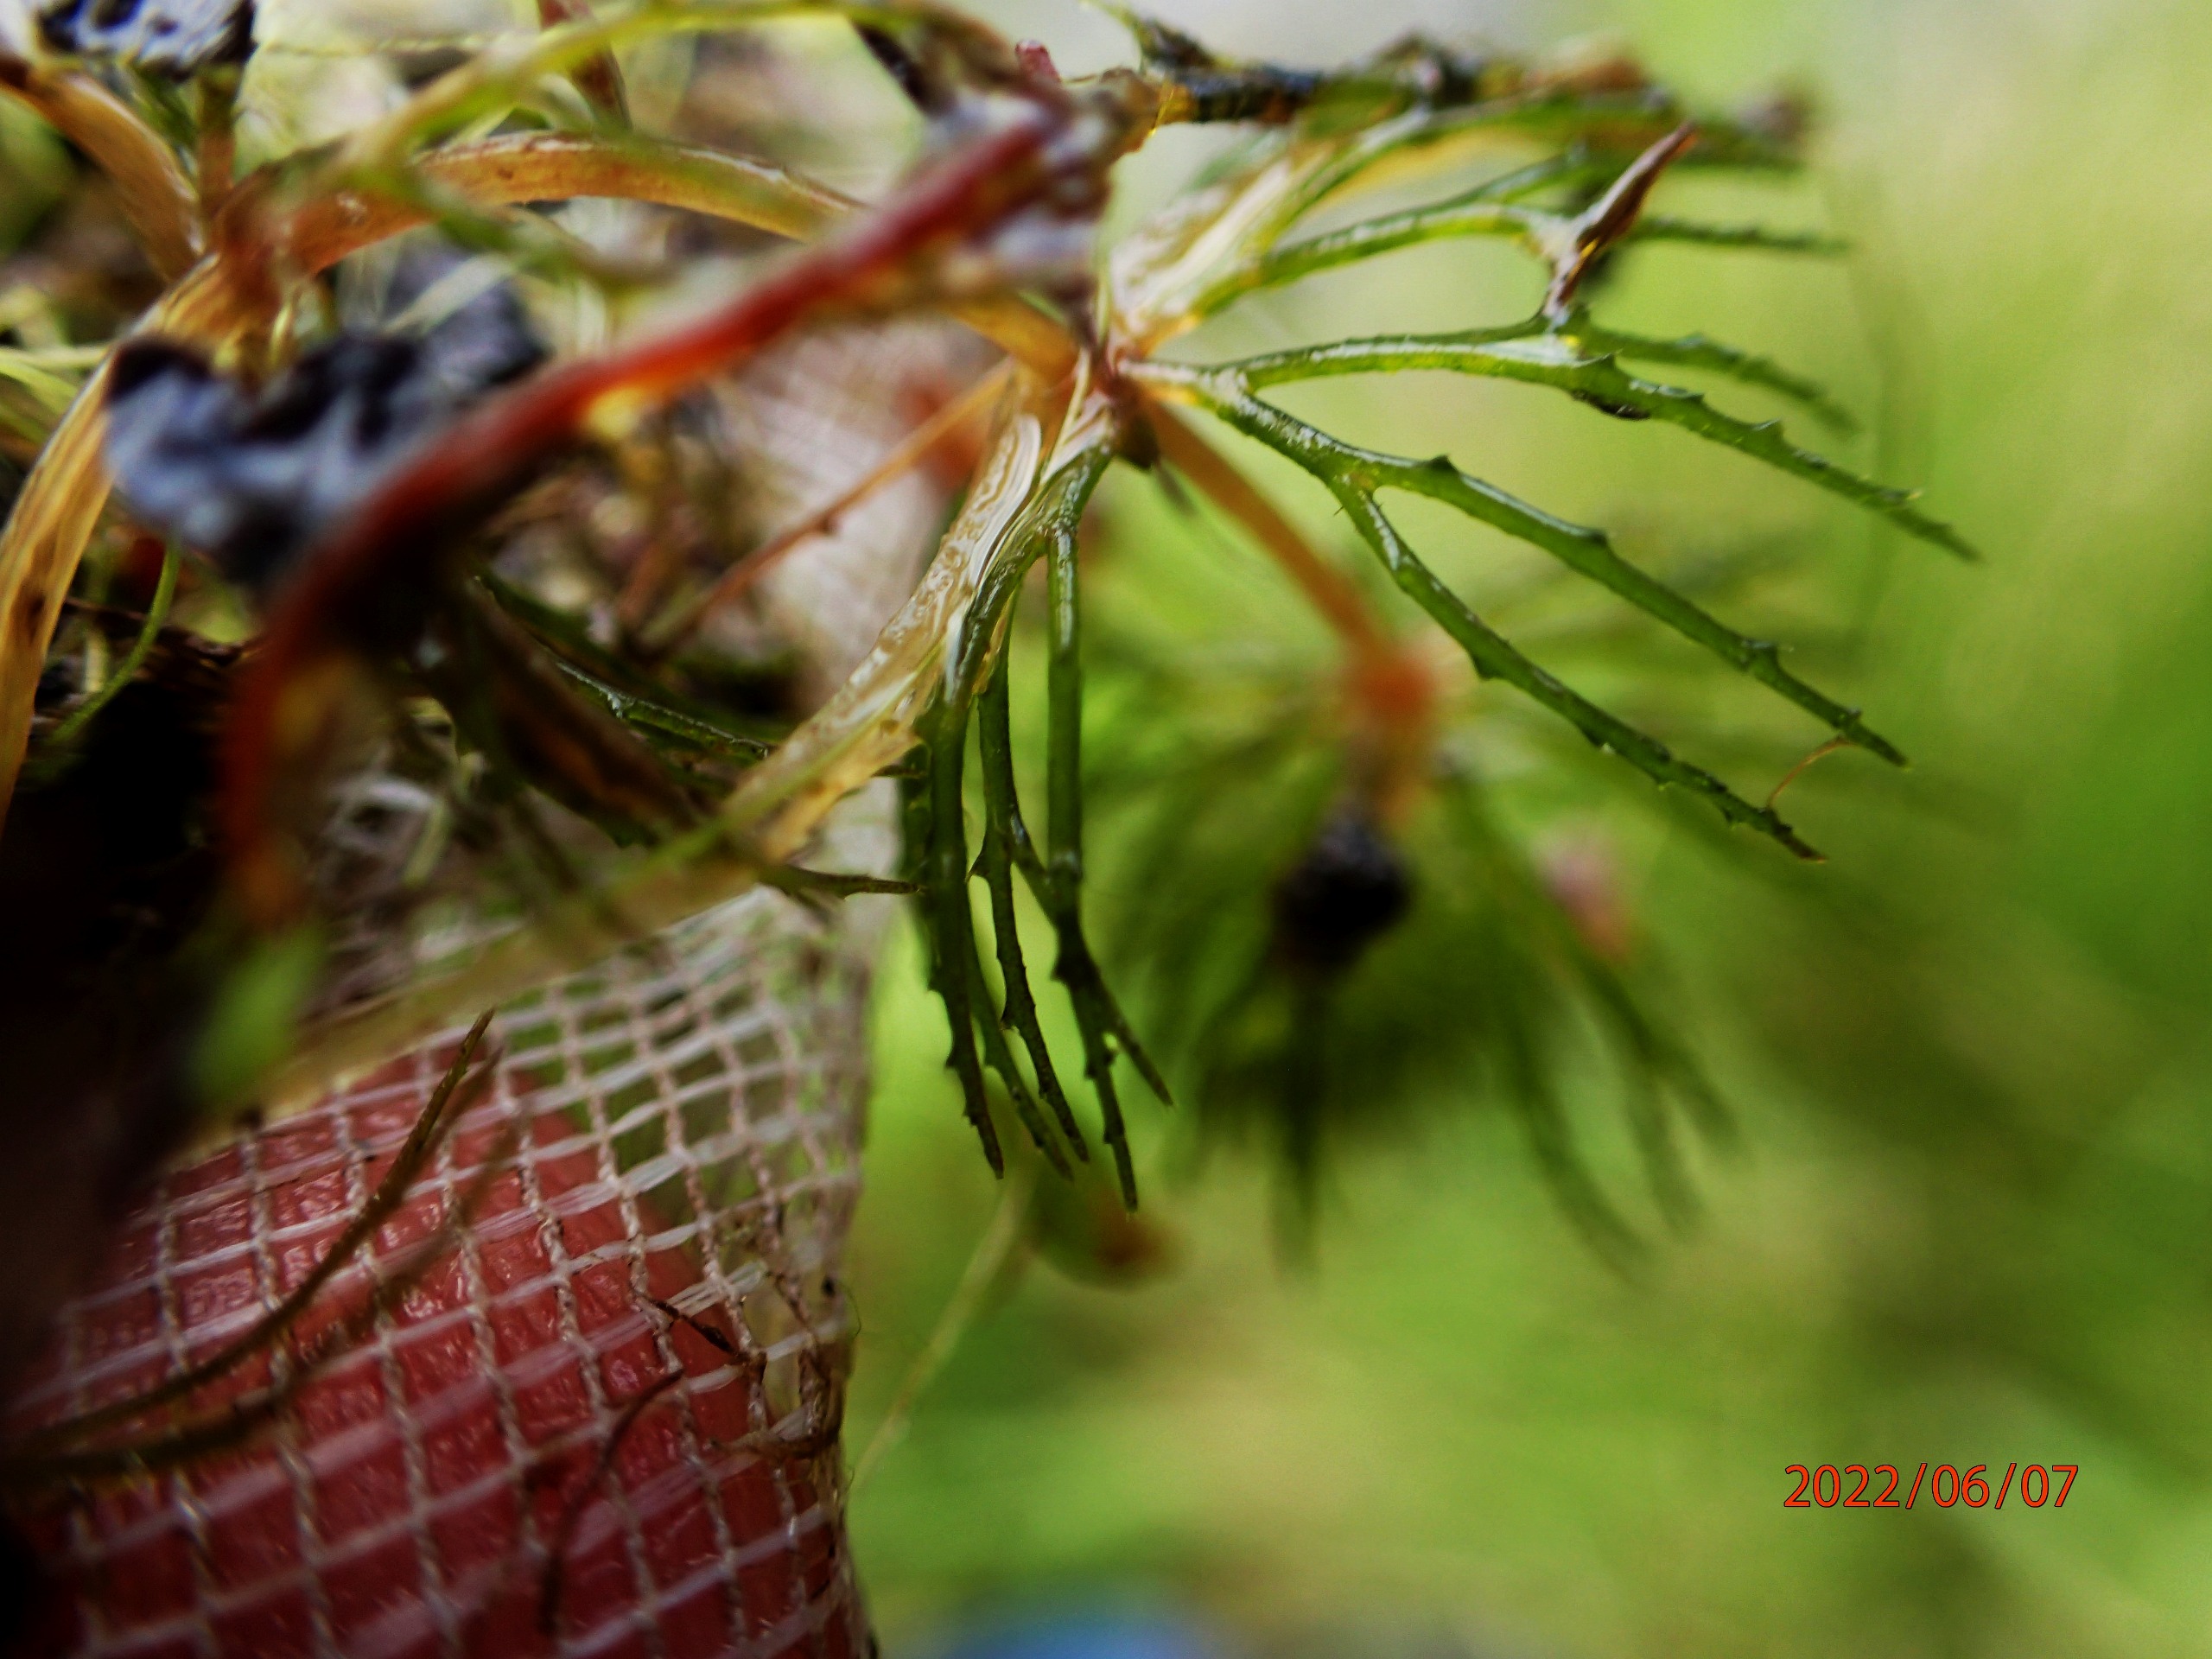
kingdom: Plantae
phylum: Tracheophyta
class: Magnoliopsida
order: Ceratophyllales
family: Ceratophyllaceae
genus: Ceratophyllum
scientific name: Ceratophyllum demersum
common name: Tornfrøet hornblad
